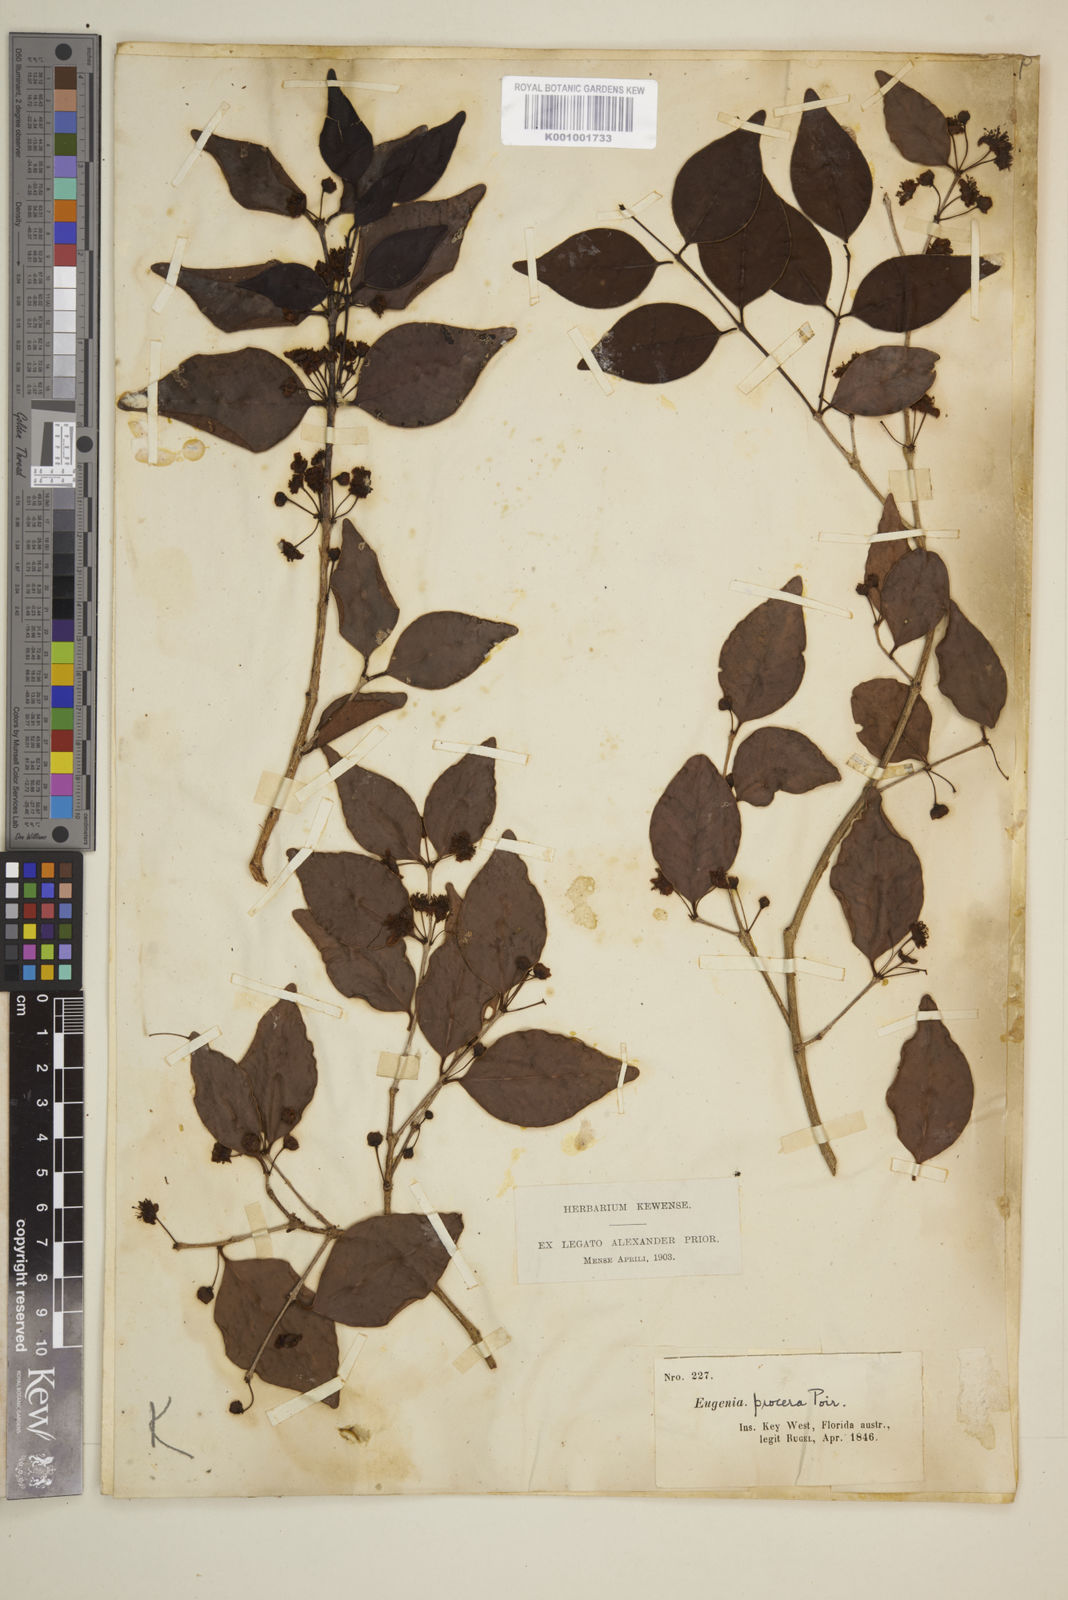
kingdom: Plantae
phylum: Tracheophyta
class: Magnoliopsida
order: Myrtales
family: Myrtaceae
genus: Eugenia
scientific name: Eugenia procera
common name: Bastard blackberry
